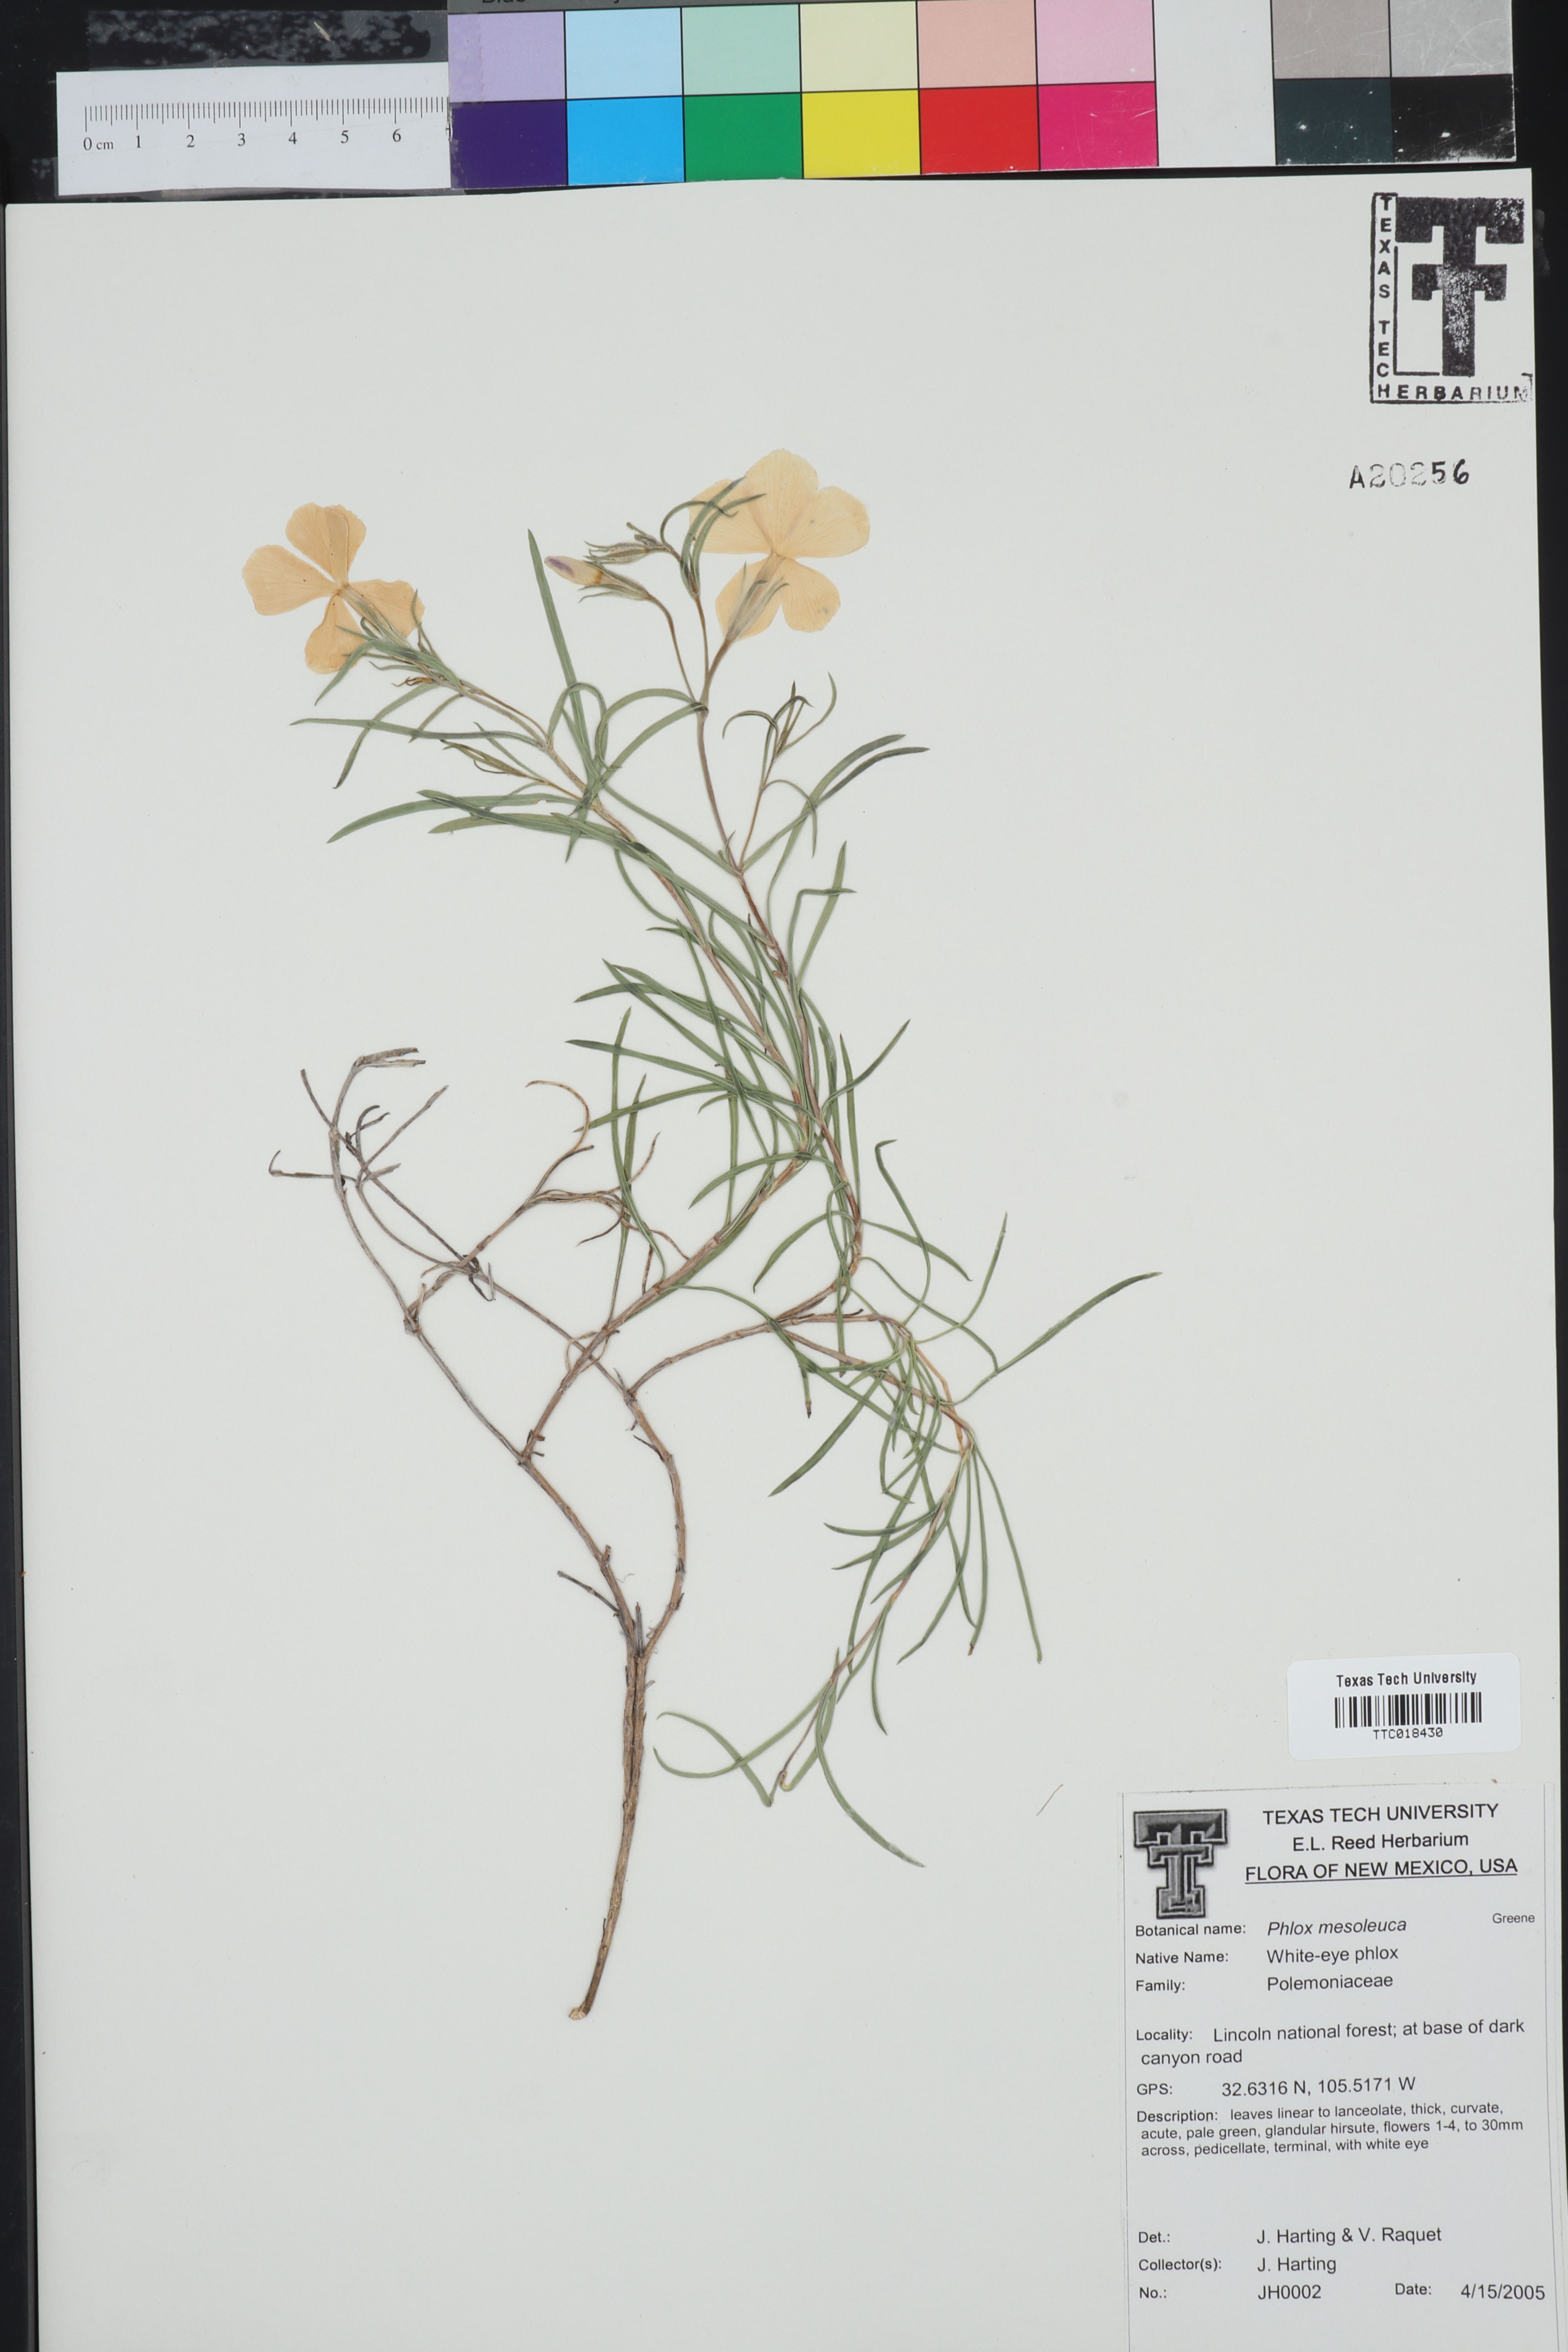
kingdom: Plantae
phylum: Tracheophyta
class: Magnoliopsida
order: Ericales
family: Polemoniaceae
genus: Phlox
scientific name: Phlox mesoleuca
